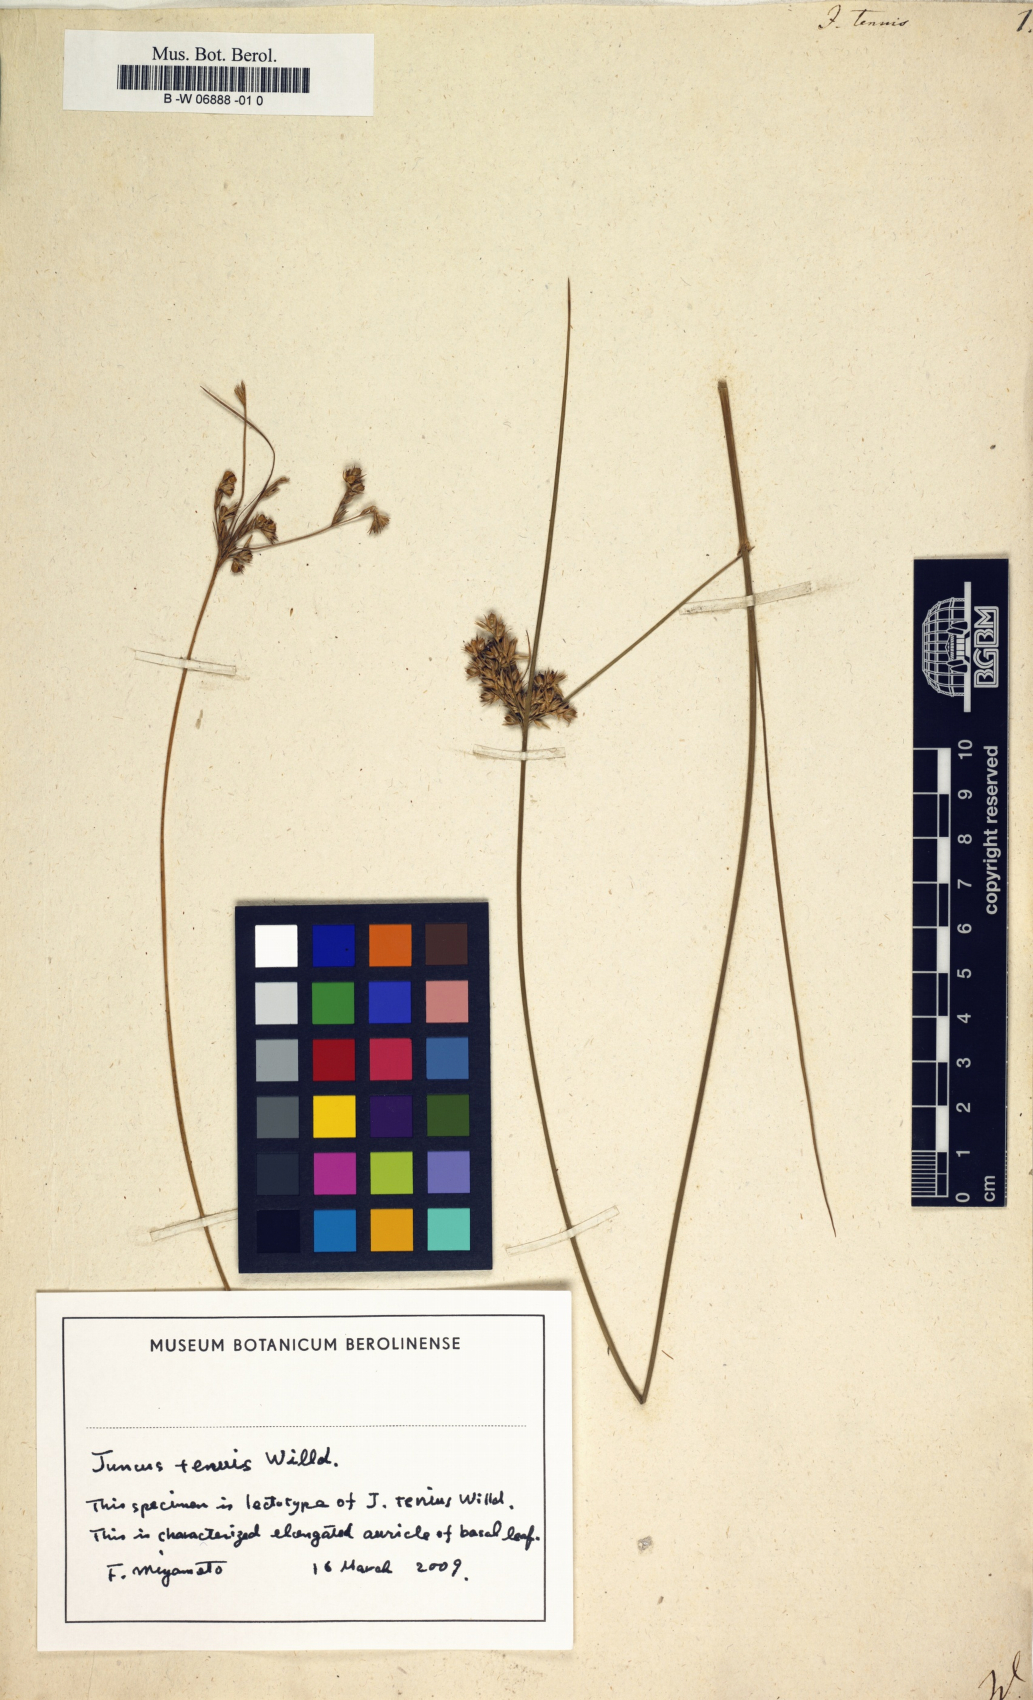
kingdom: Plantae
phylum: Tracheophyta
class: Liliopsida
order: Poales
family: Juncaceae
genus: Juncus
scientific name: Juncus tenuis
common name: Slender rush
